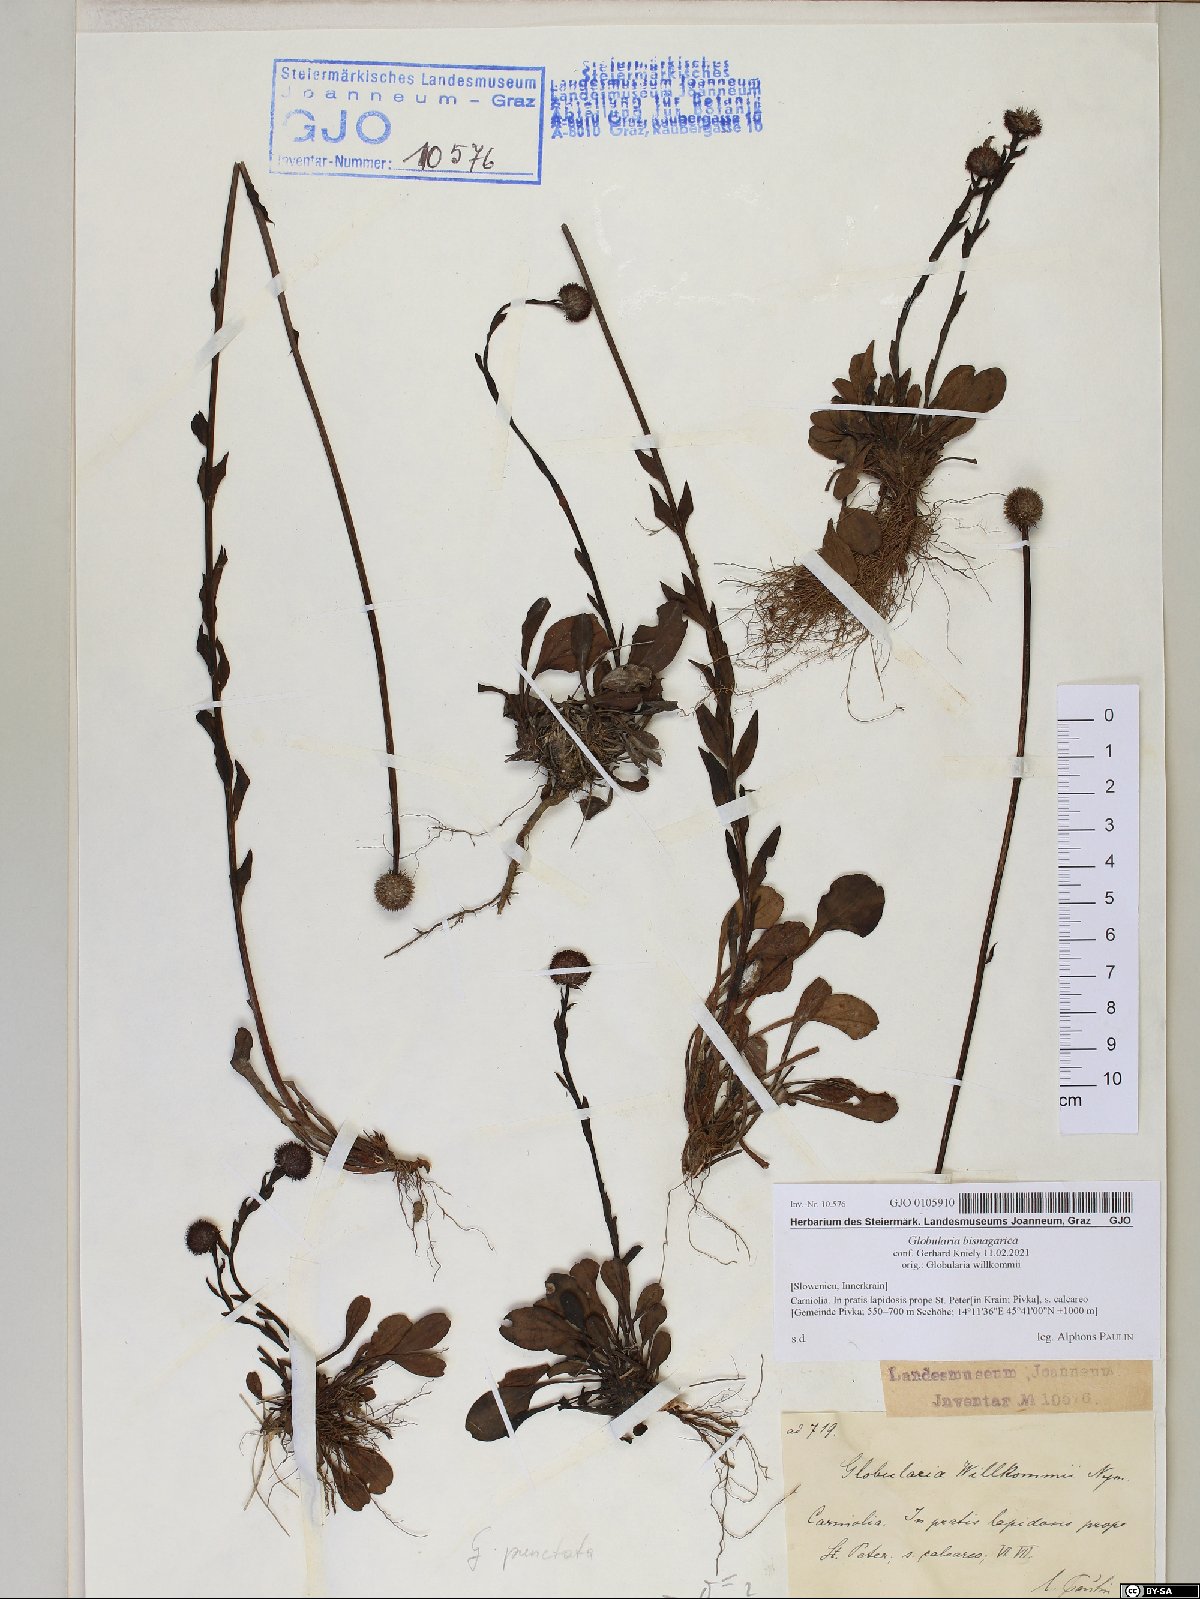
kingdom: Plantae
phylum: Tracheophyta
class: Magnoliopsida
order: Lamiales
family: Plantaginaceae
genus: Globularia
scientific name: Globularia bisnagarica
